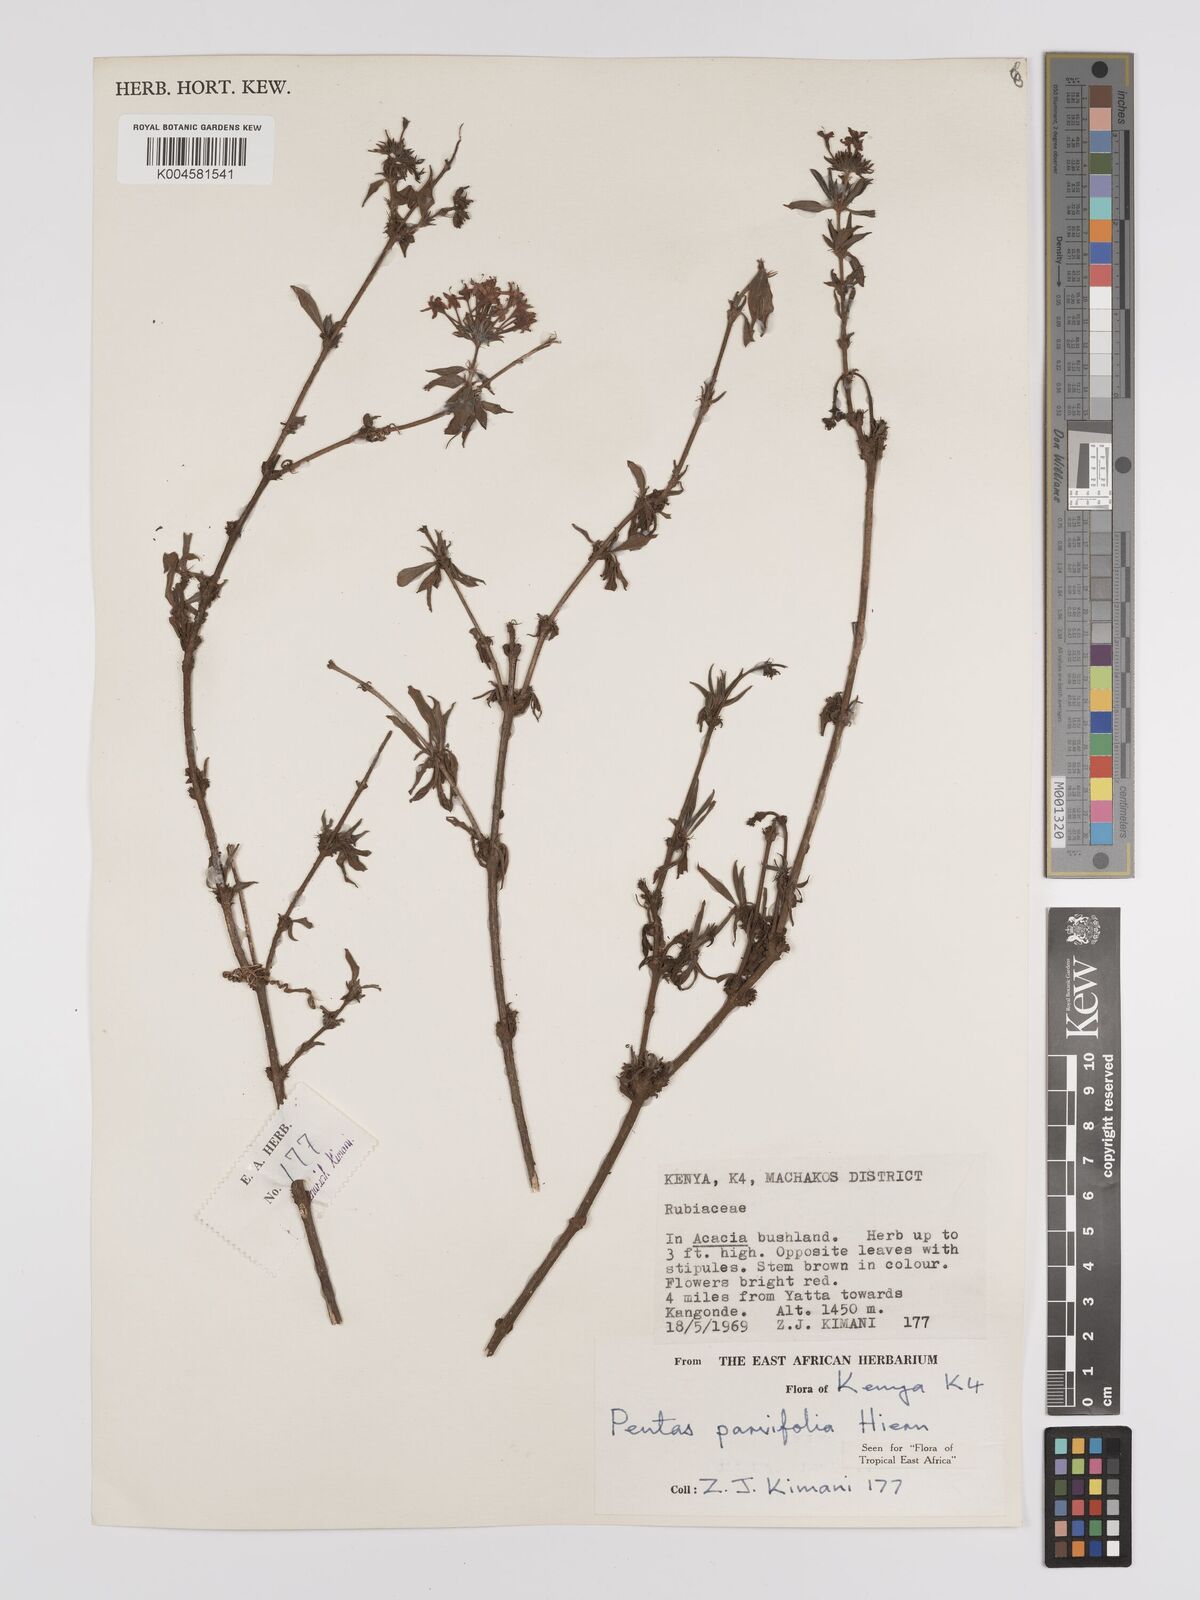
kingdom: Plantae
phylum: Tracheophyta
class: Magnoliopsida
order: Gentianales
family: Rubiaceae
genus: Rhodopentas
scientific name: Rhodopentas parvifolia
